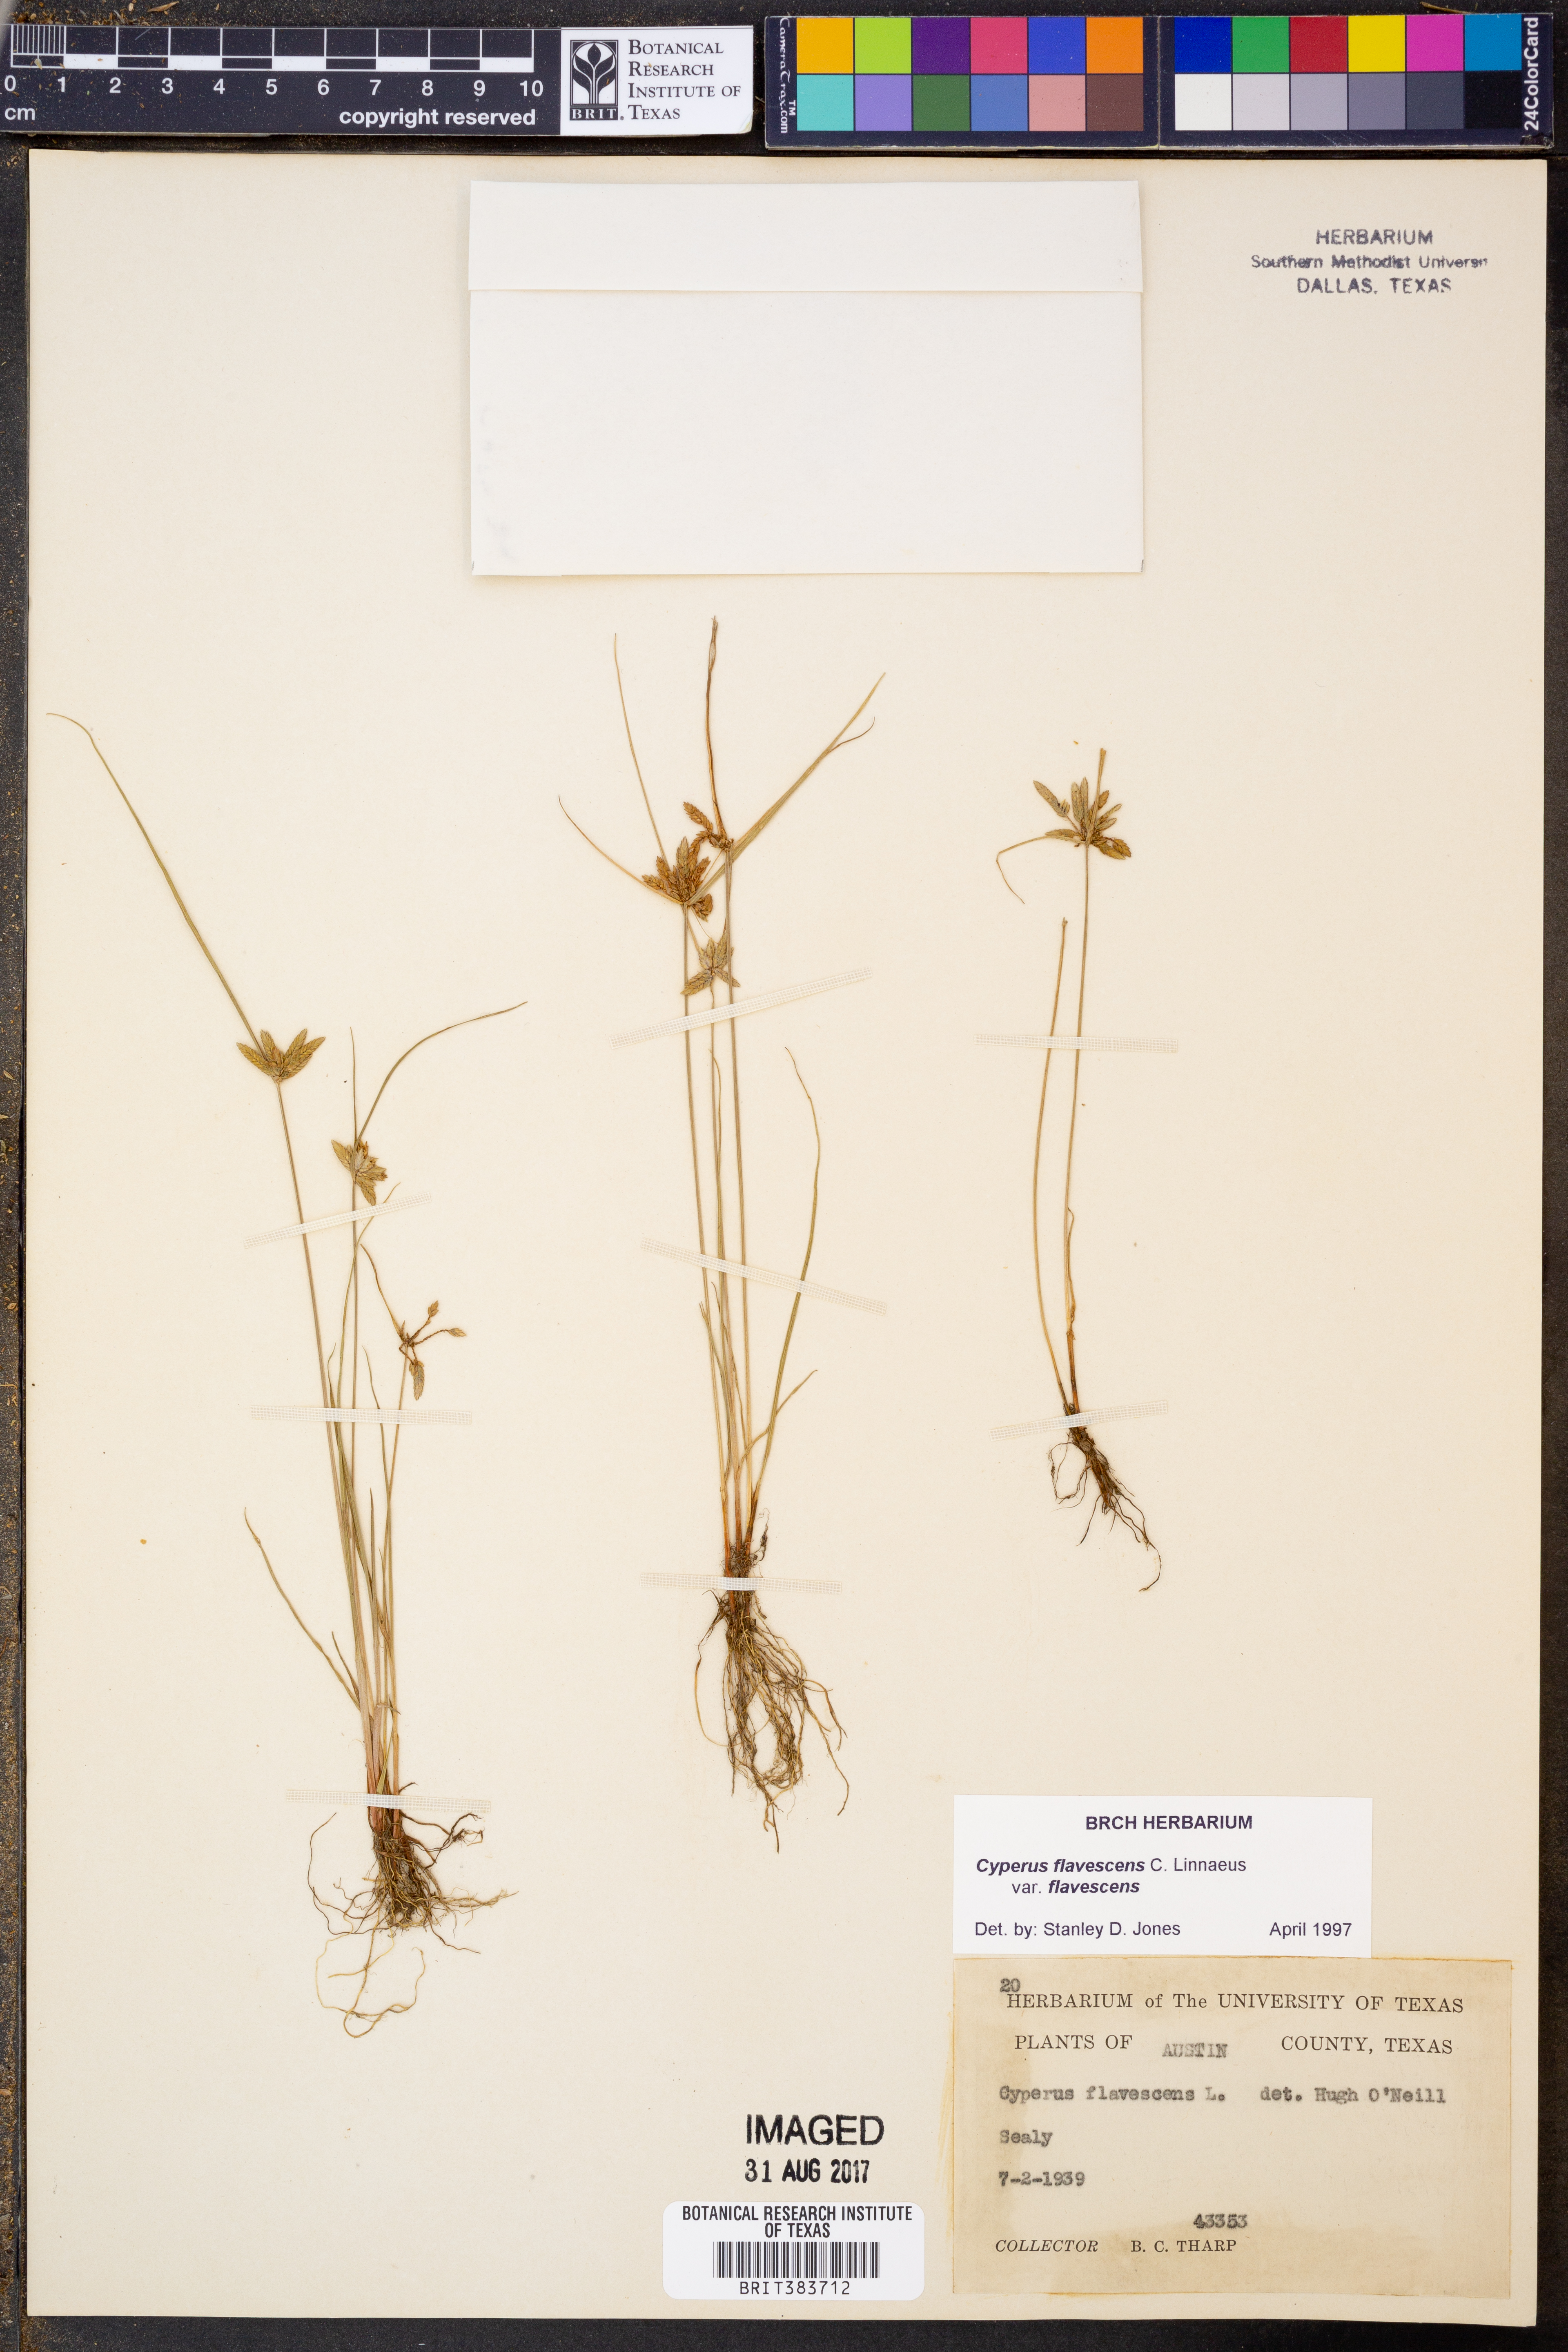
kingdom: Plantae
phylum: Tracheophyta
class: Liliopsida
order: Poales
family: Cyperaceae
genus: Cyperus
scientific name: Cyperus flavescens
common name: Yellow galingale
